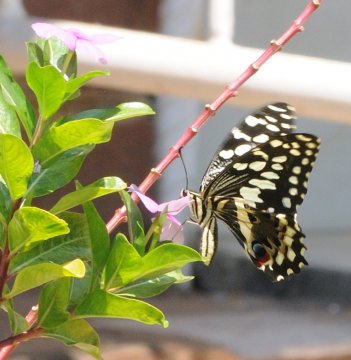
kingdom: Animalia
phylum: Arthropoda
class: Insecta
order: Lepidoptera
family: Papilionidae
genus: Papilio
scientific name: Papilio demodocus
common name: Citrus Swallowtail
